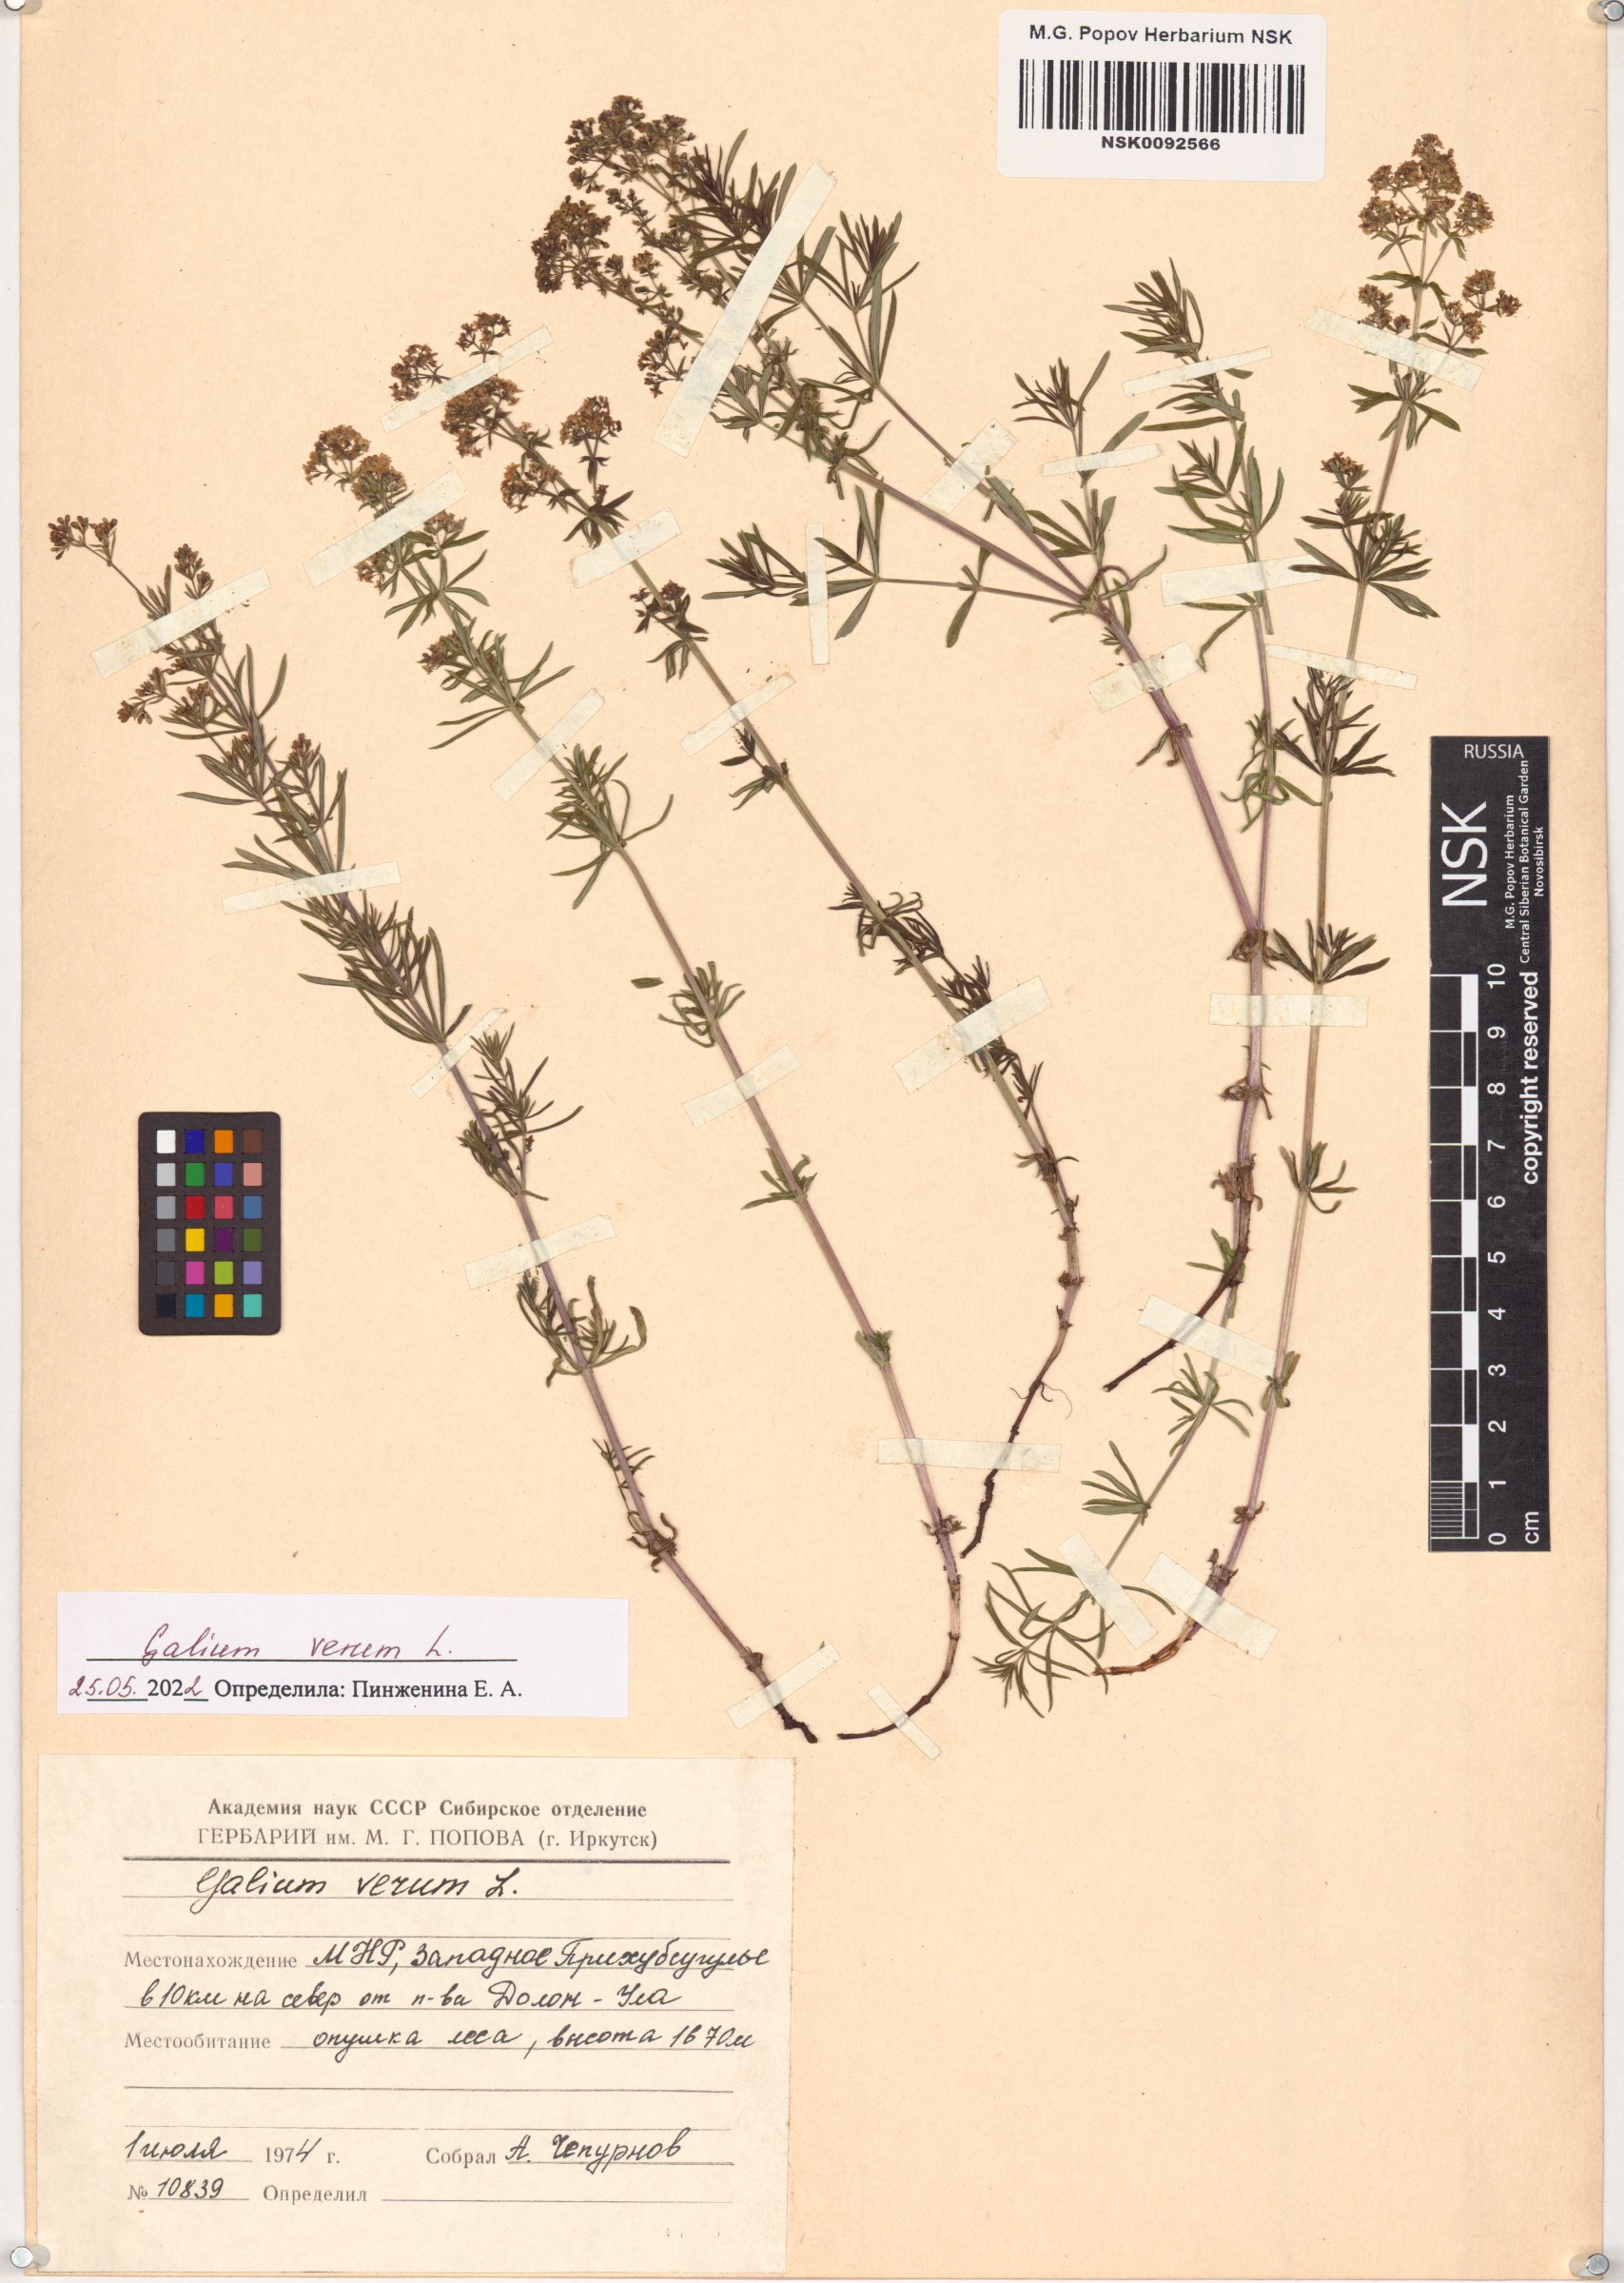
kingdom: Plantae
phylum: Tracheophyta
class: Magnoliopsida
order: Gentianales
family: Rubiaceae
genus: Galium
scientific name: Galium verum
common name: Lady's bedstraw
